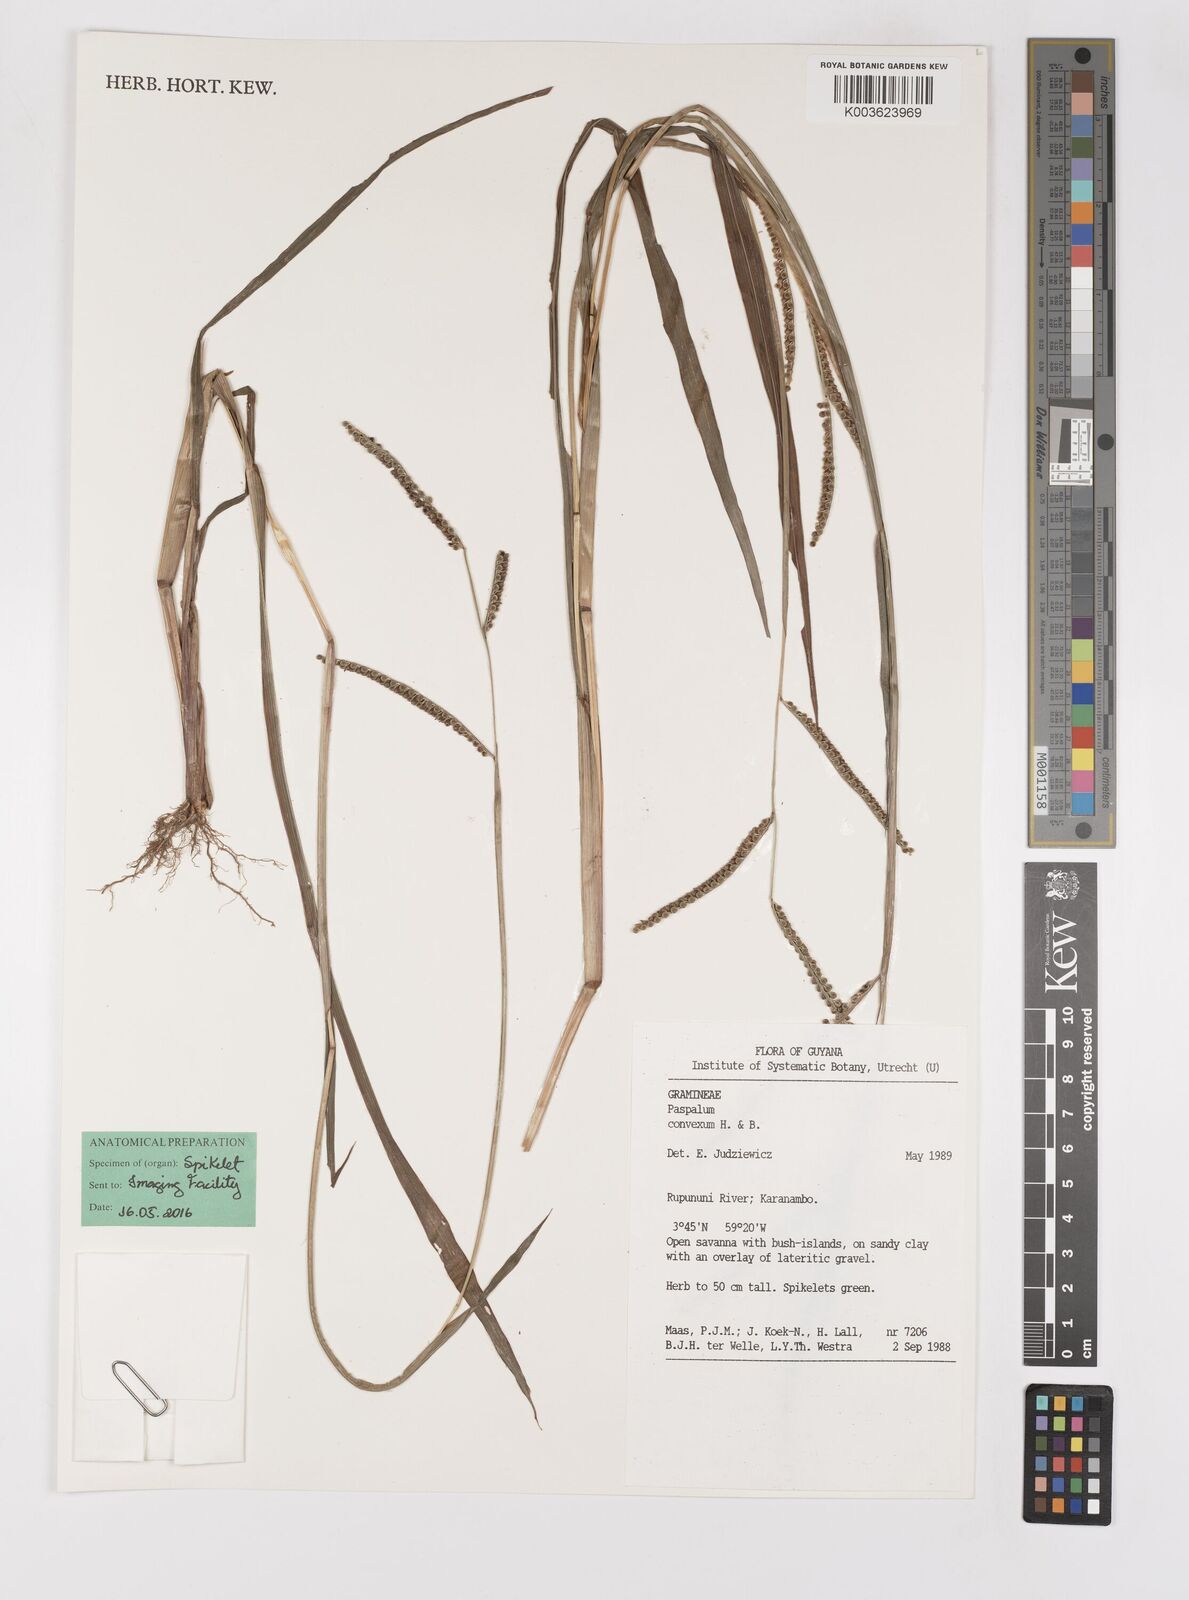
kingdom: Plantae
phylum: Tracheophyta
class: Liliopsida
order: Poales
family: Poaceae
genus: Paspalum
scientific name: Paspalum convexum
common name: Latin american crowngrass
